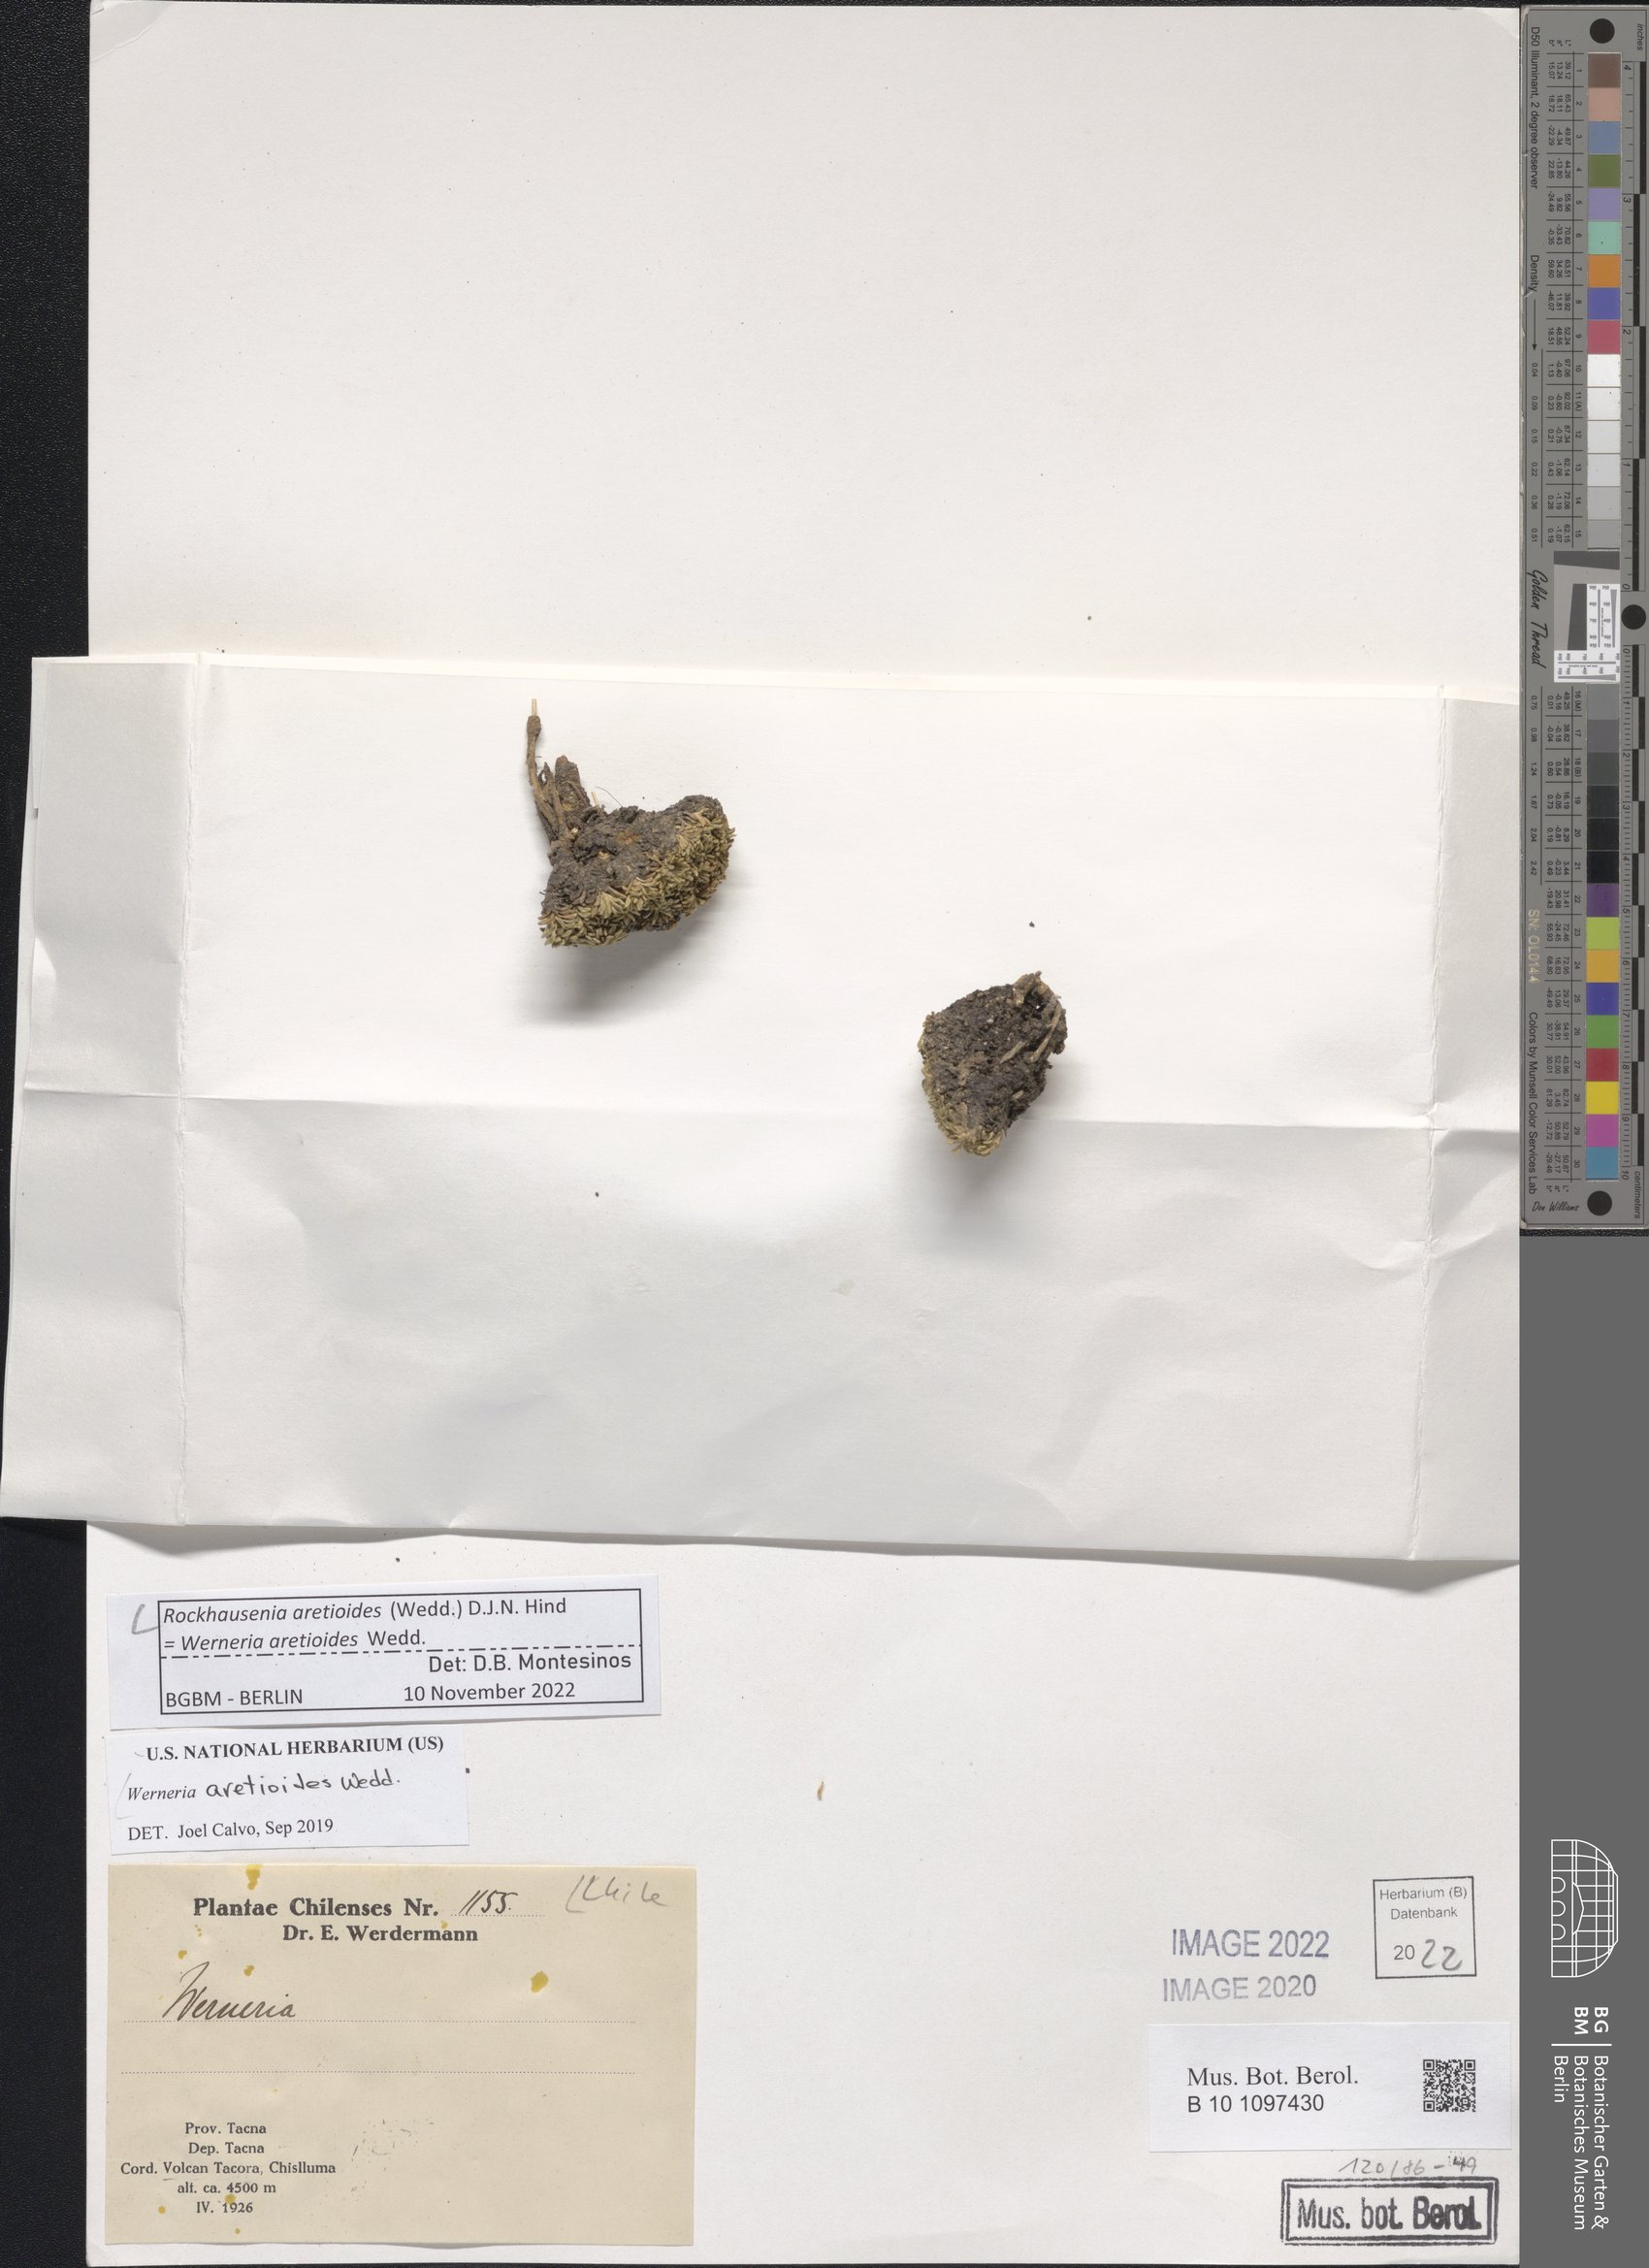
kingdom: Plantae
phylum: Tracheophyta
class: Magnoliopsida
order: Asterales
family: Asteraceae
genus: Rockhausenia
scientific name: Rockhausenia aretioides
